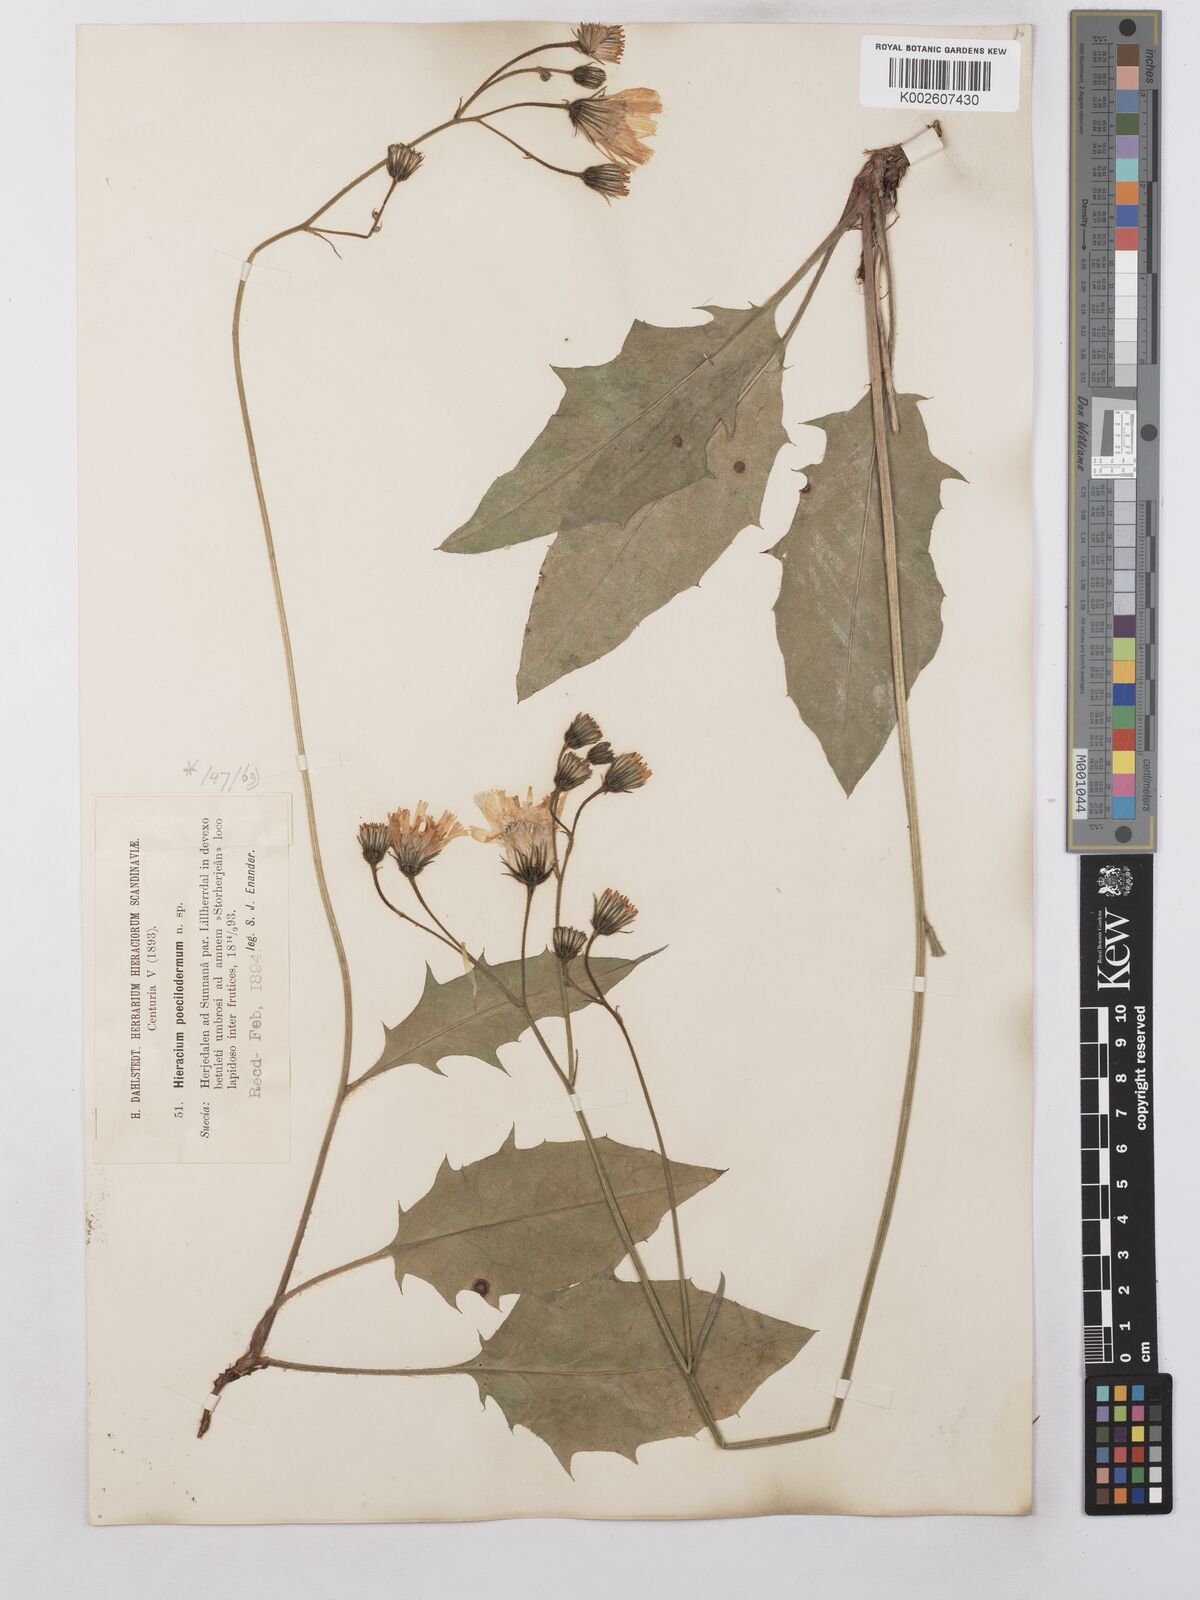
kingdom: Plantae
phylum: Tracheophyta
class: Magnoliopsida
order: Asterales
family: Asteraceae
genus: Hieracium
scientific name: Hieracium poecilodermum
